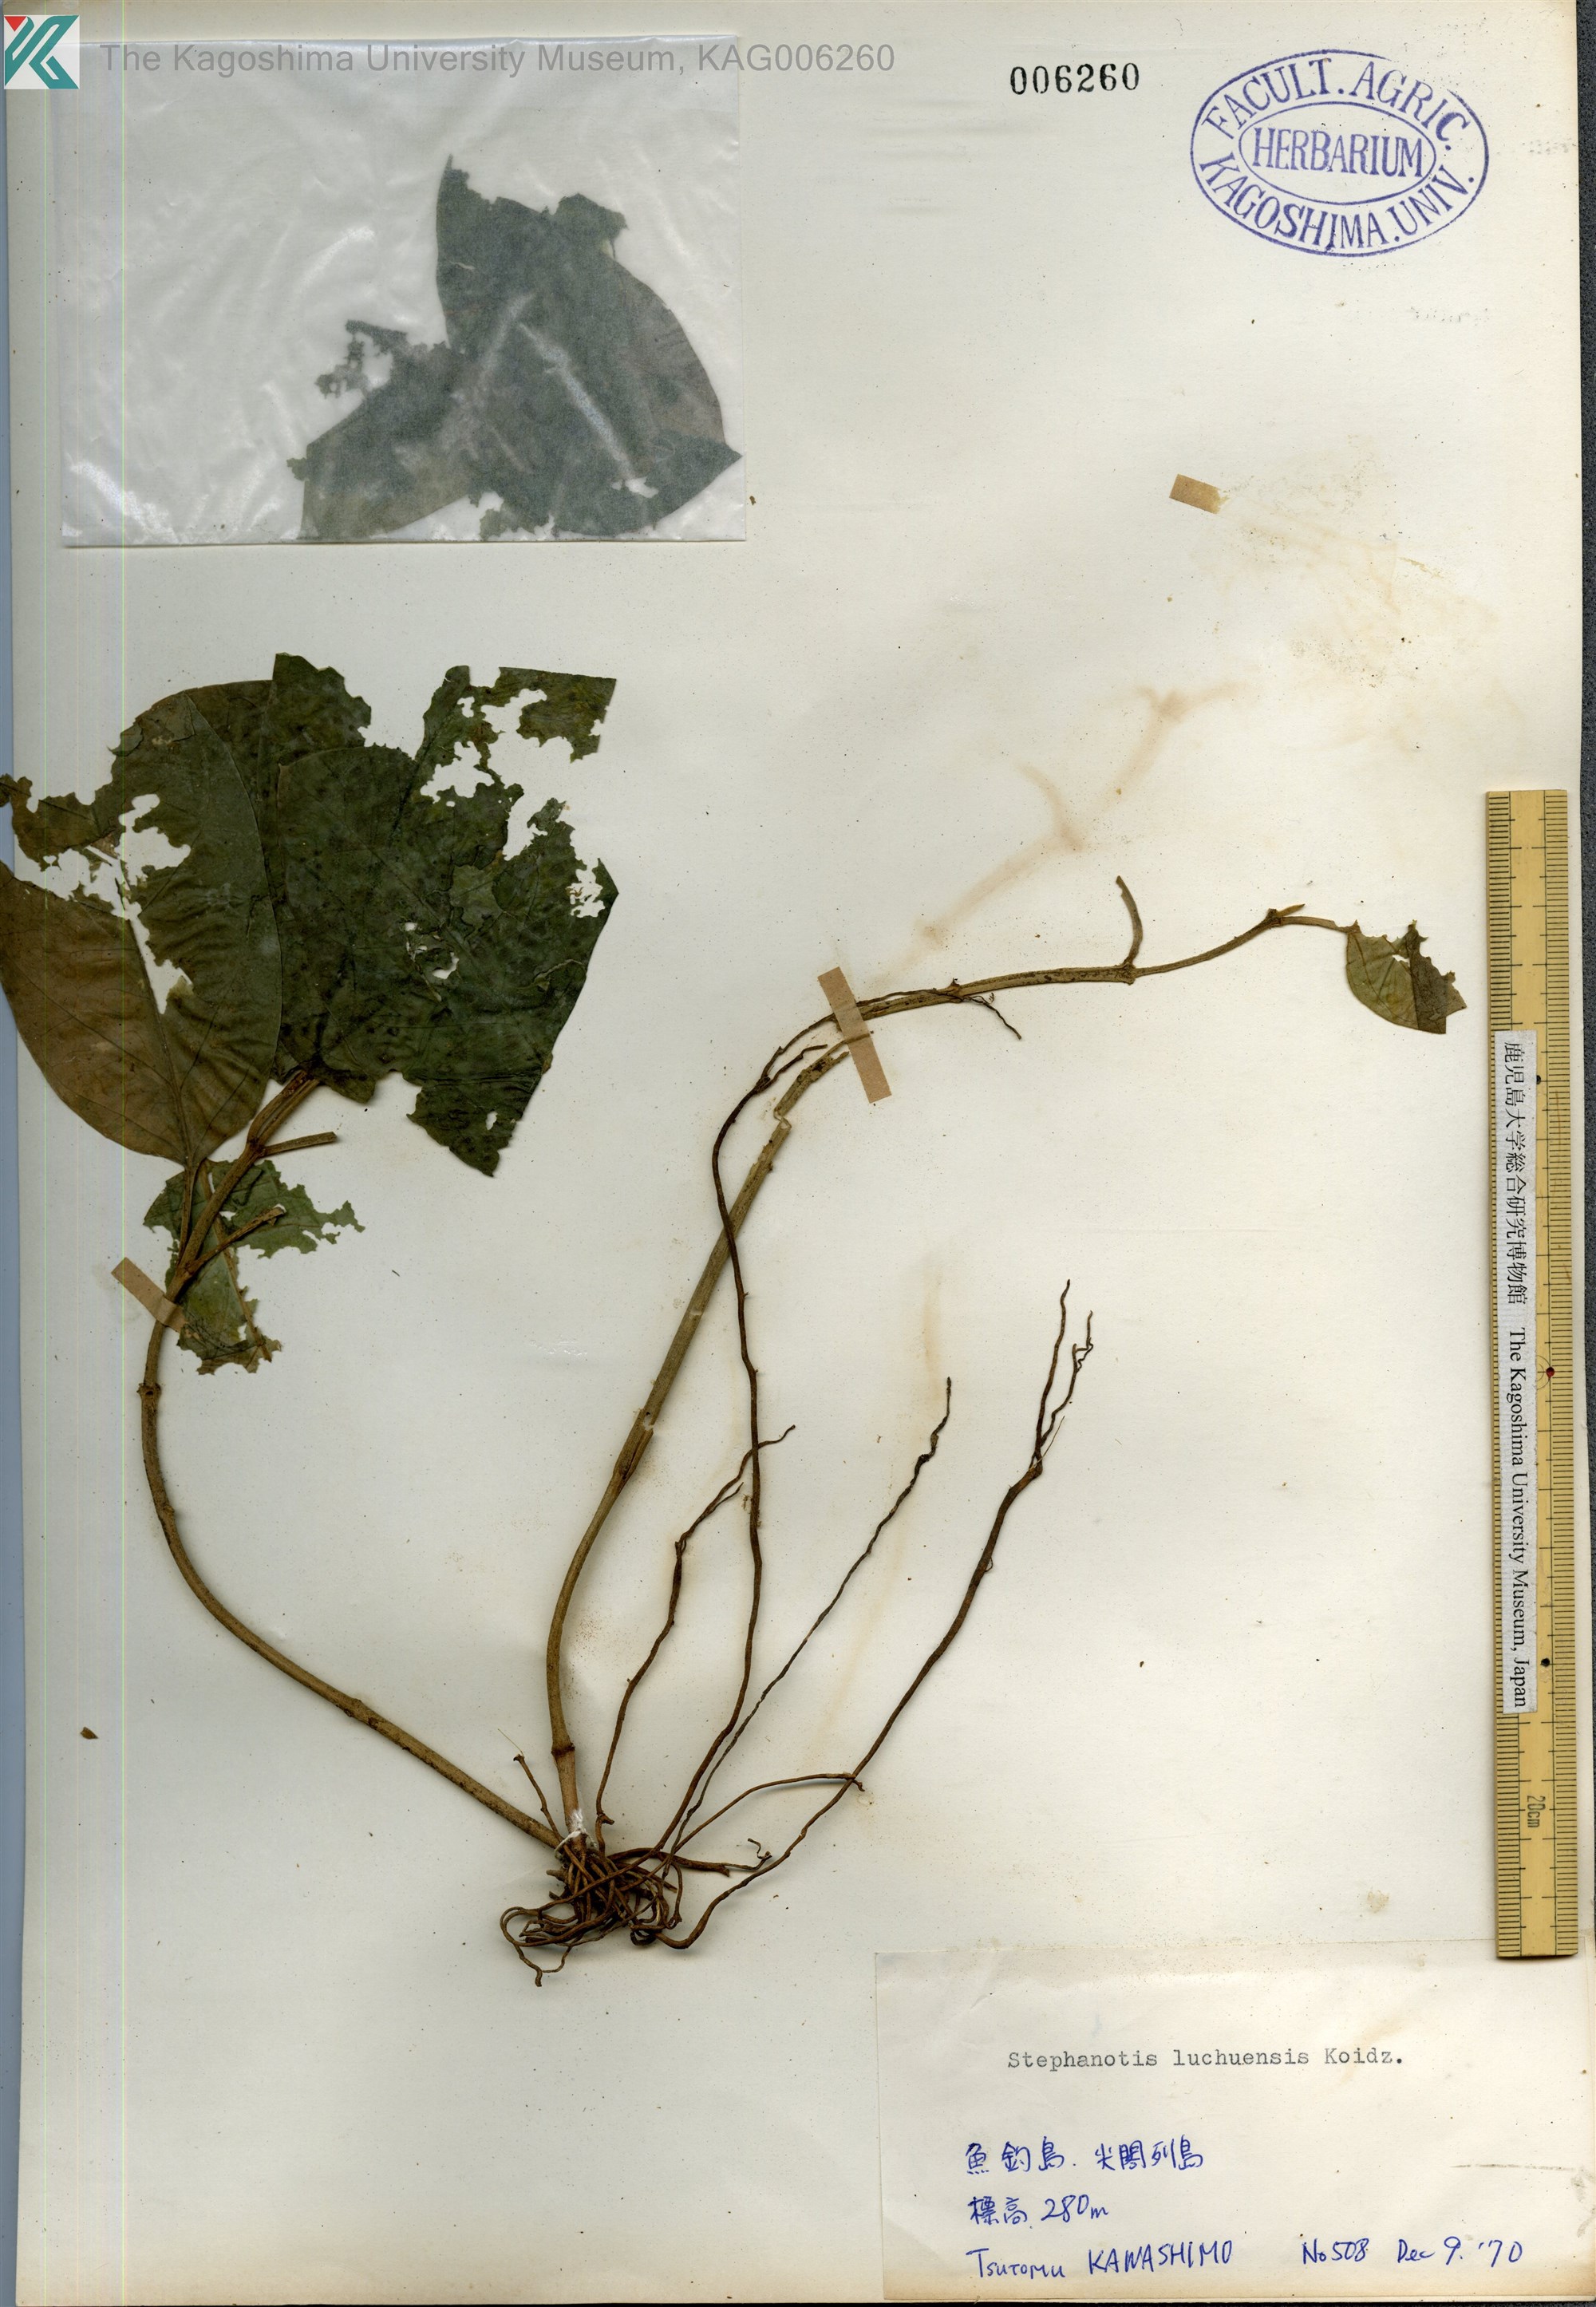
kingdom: Plantae
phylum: Tracheophyta
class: Magnoliopsida
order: Gentianales
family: Apocynaceae
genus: Jasminanthes
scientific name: Jasminanthes mucronata
